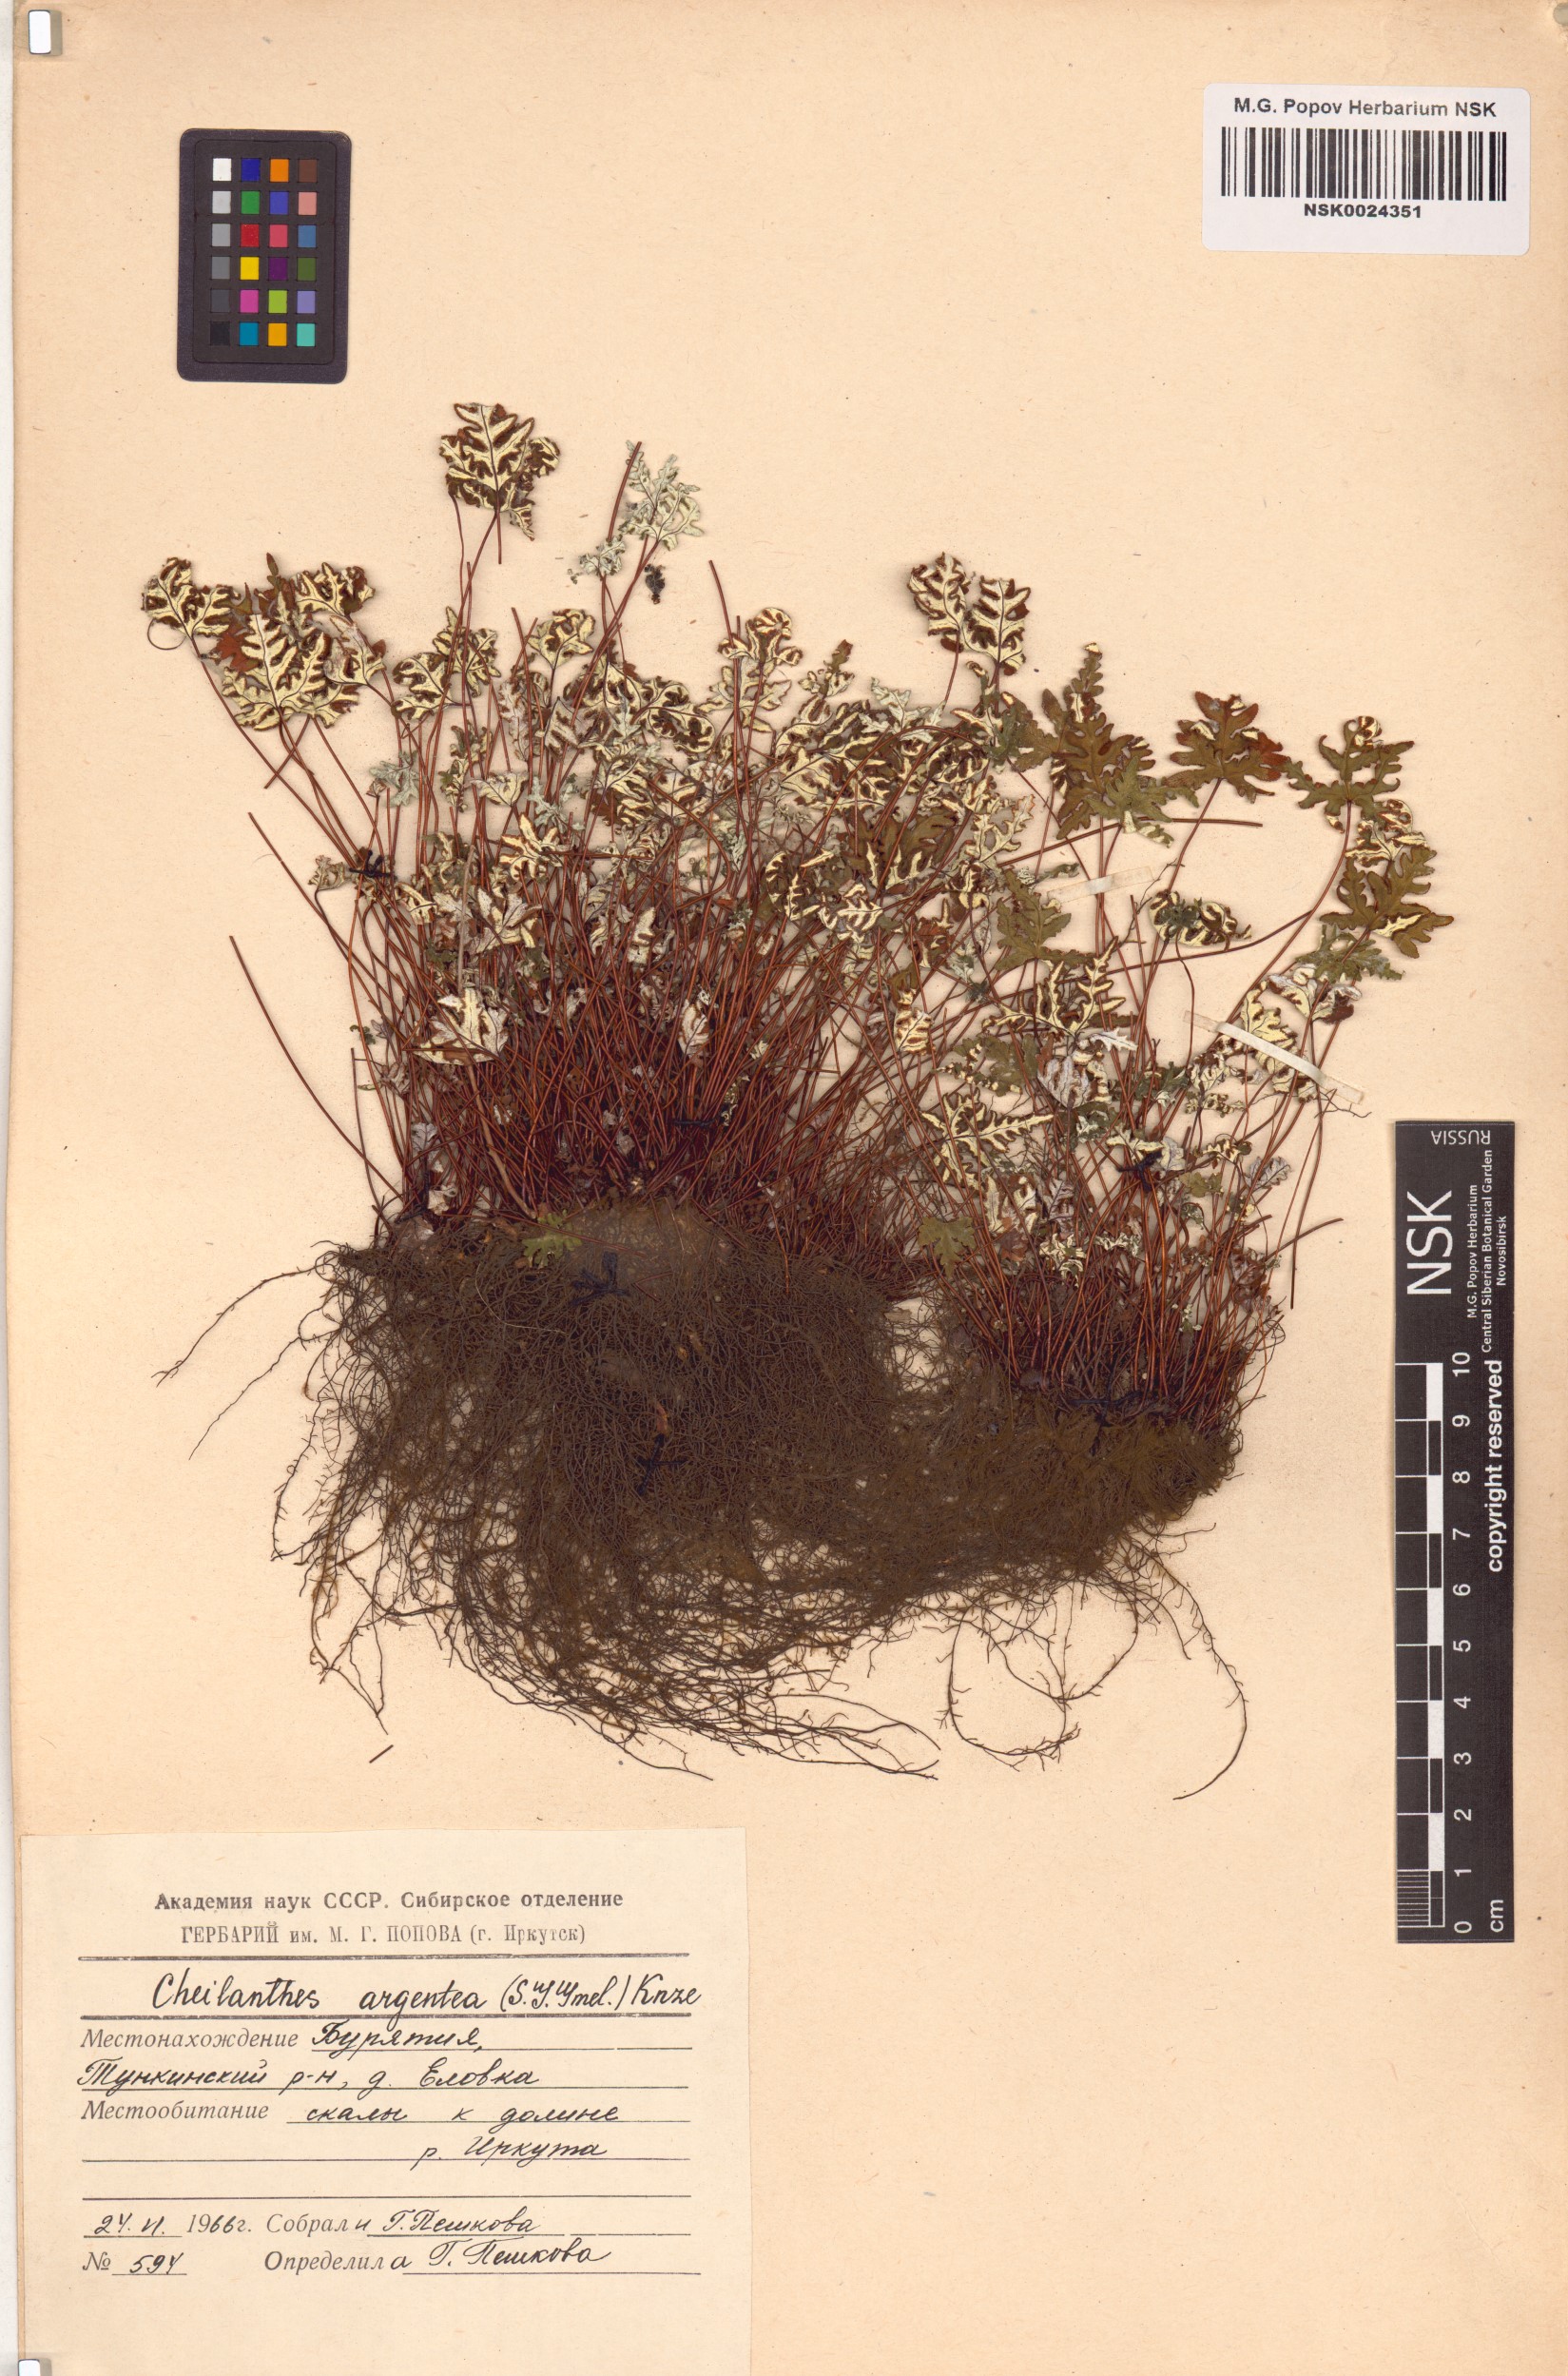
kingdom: Plantae
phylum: Tracheophyta
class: Polypodiopsida
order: Polypodiales
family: Pteridaceae
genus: Aleuritopteris
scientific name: Aleuritopteris argentea
